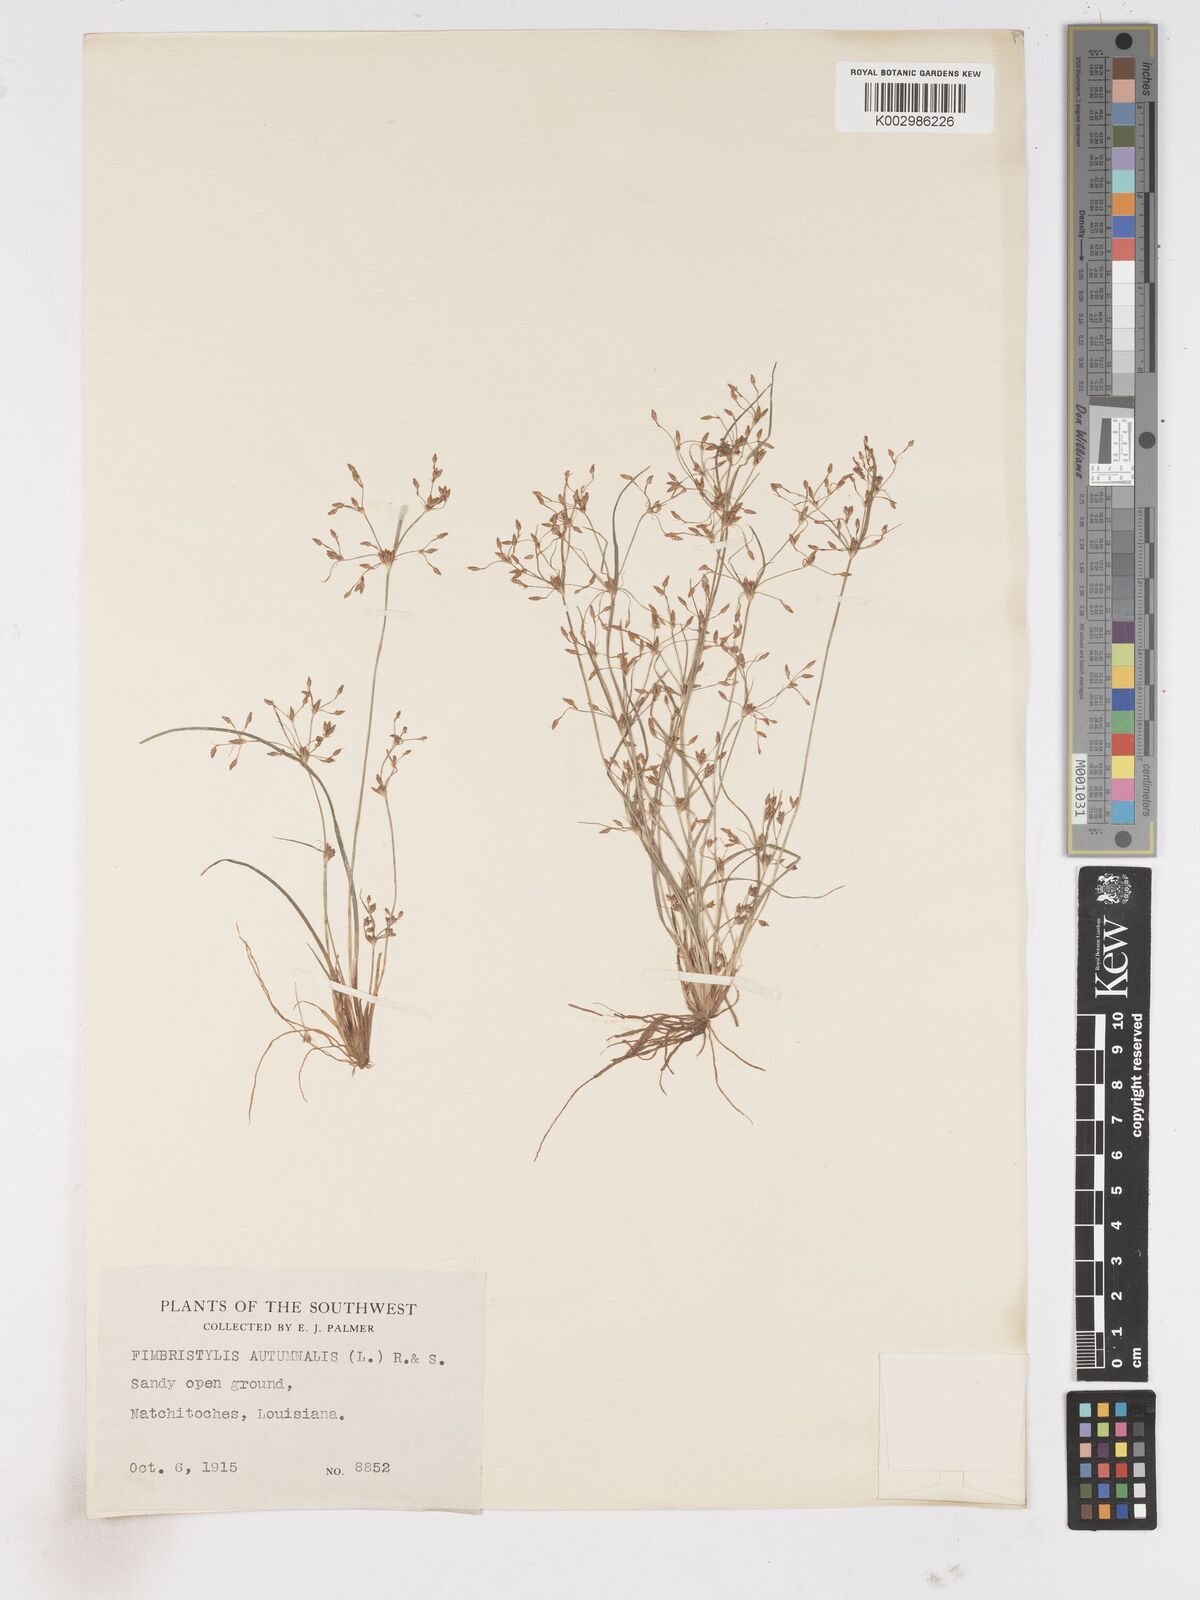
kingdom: Plantae
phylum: Tracheophyta
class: Liliopsida
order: Poales
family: Cyperaceae
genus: Fimbristylis
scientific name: Fimbristylis autumnalis
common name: Slender fimbristylis
